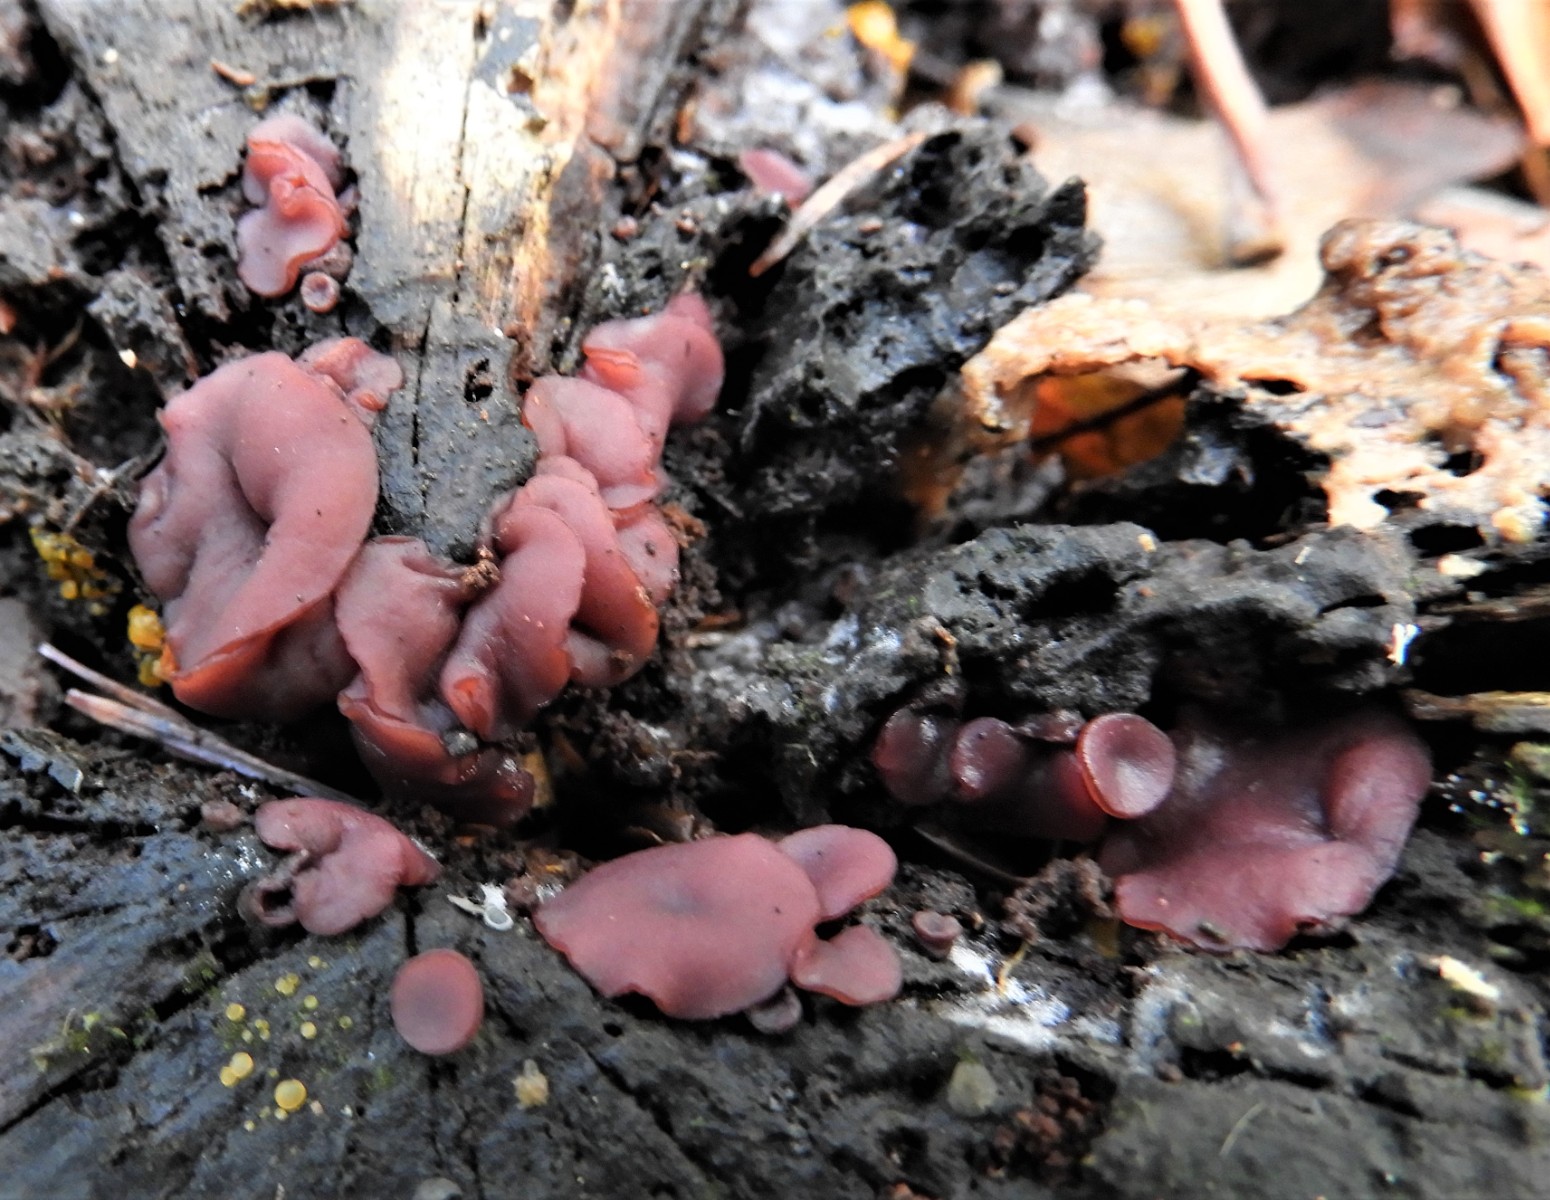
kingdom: Fungi
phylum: Ascomycota
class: Leotiomycetes
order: Helotiales
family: Gelatinodiscaceae
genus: Ascocoryne
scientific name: Ascocoryne cylichnium
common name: stor sejskive
